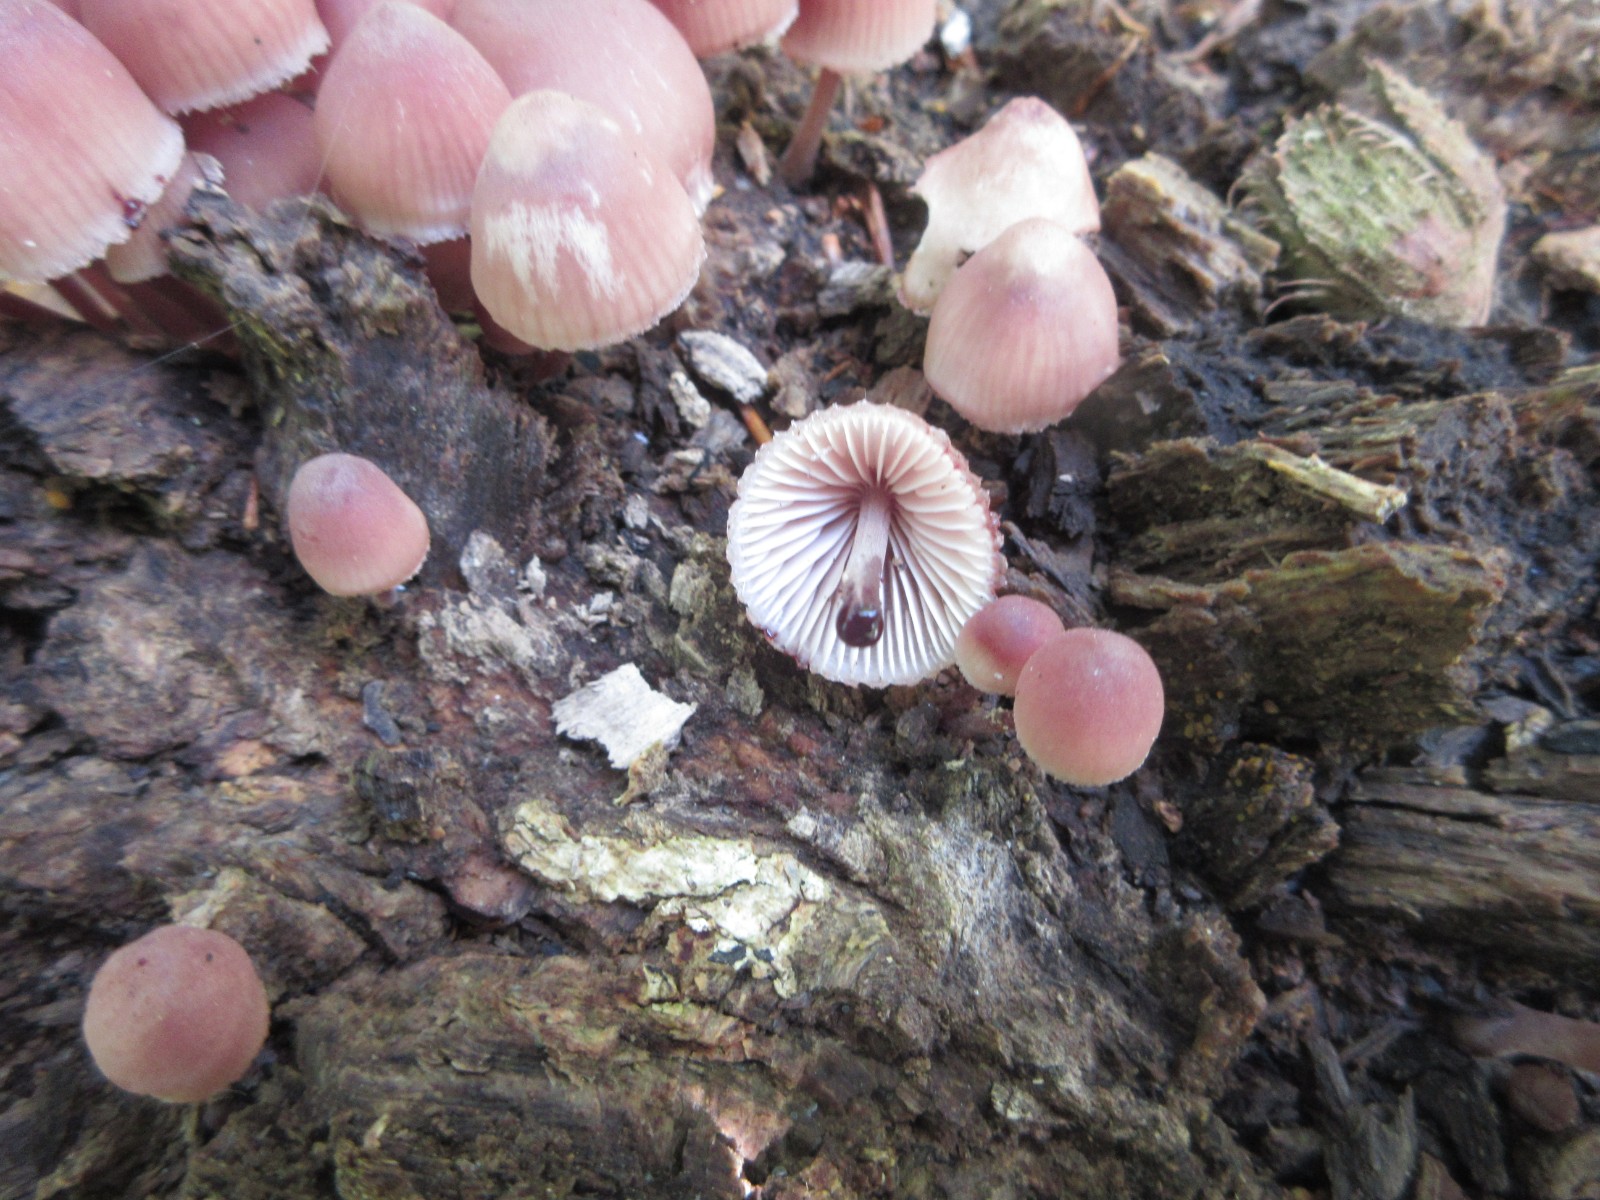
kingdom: Fungi
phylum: Basidiomycota
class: Agaricomycetes
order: Agaricales
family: Mycenaceae
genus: Mycena
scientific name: Mycena sanguinolenta
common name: rødmælket huesvamp
